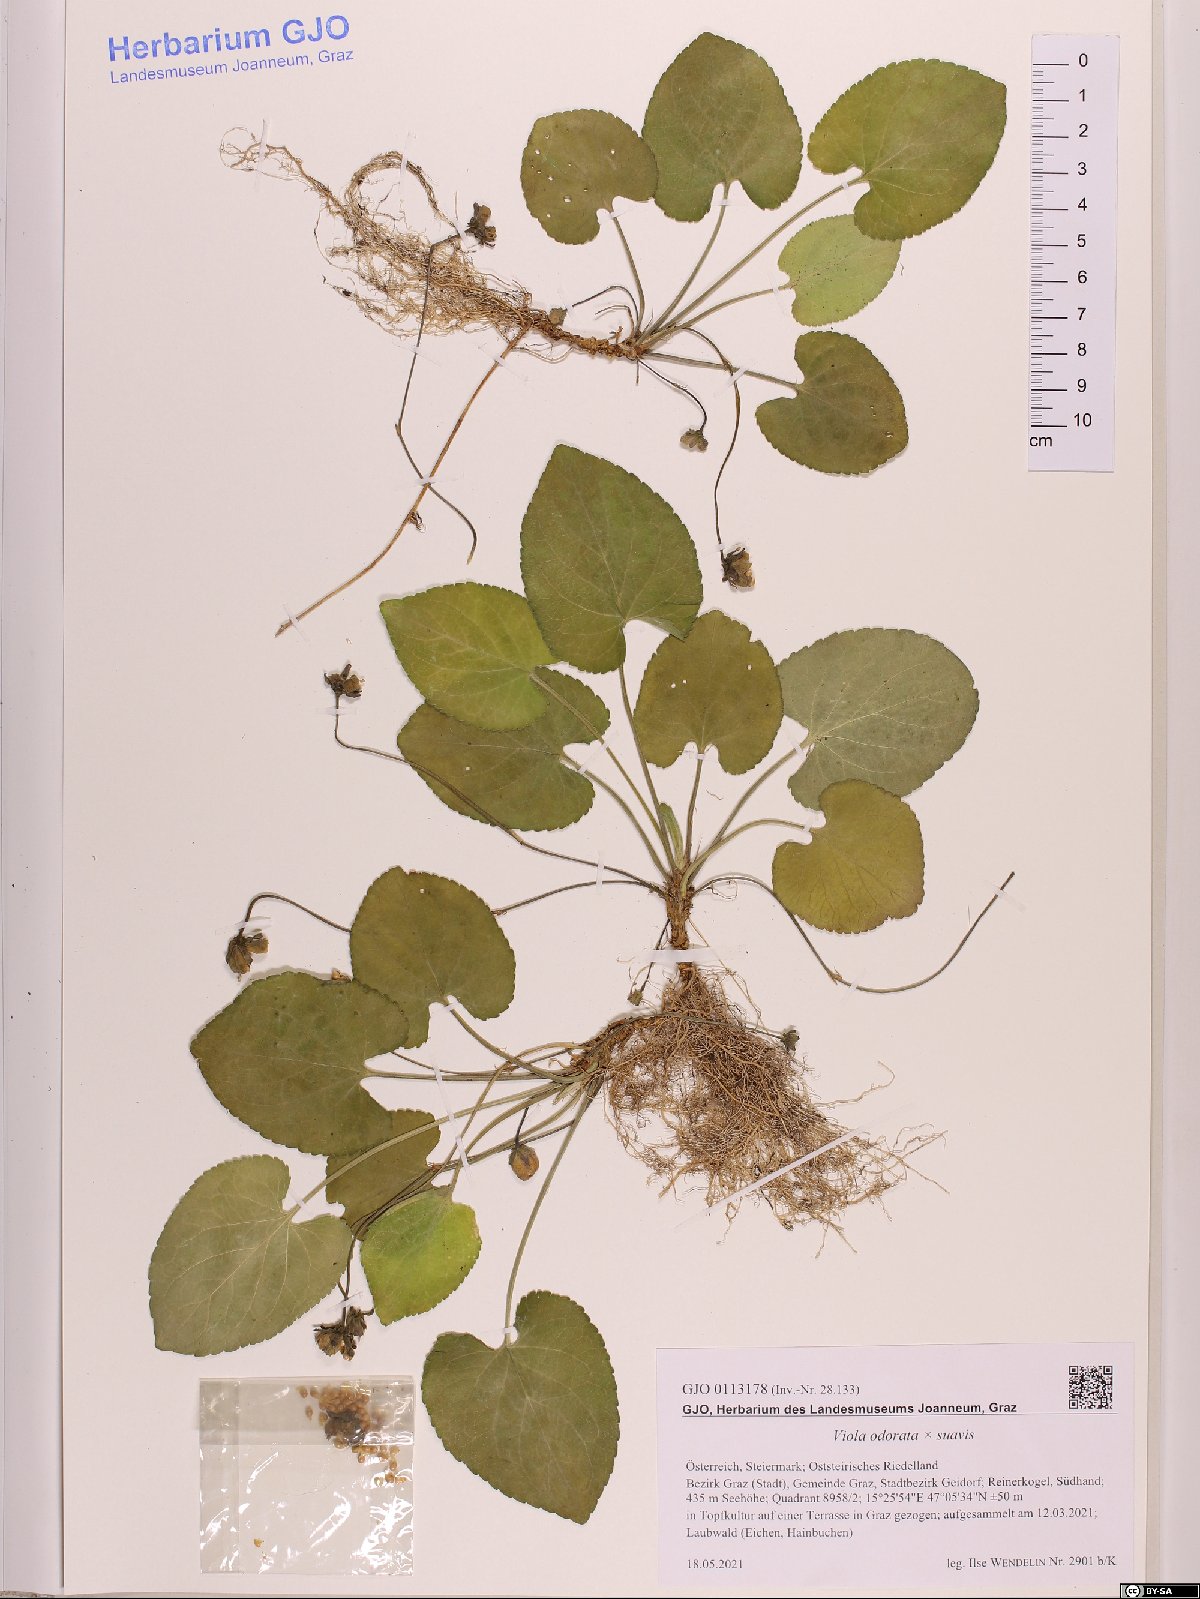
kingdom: Plantae
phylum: Tracheophyta
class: Magnoliopsida
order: Malpighiales
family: Violaceae
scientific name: Violaceae
